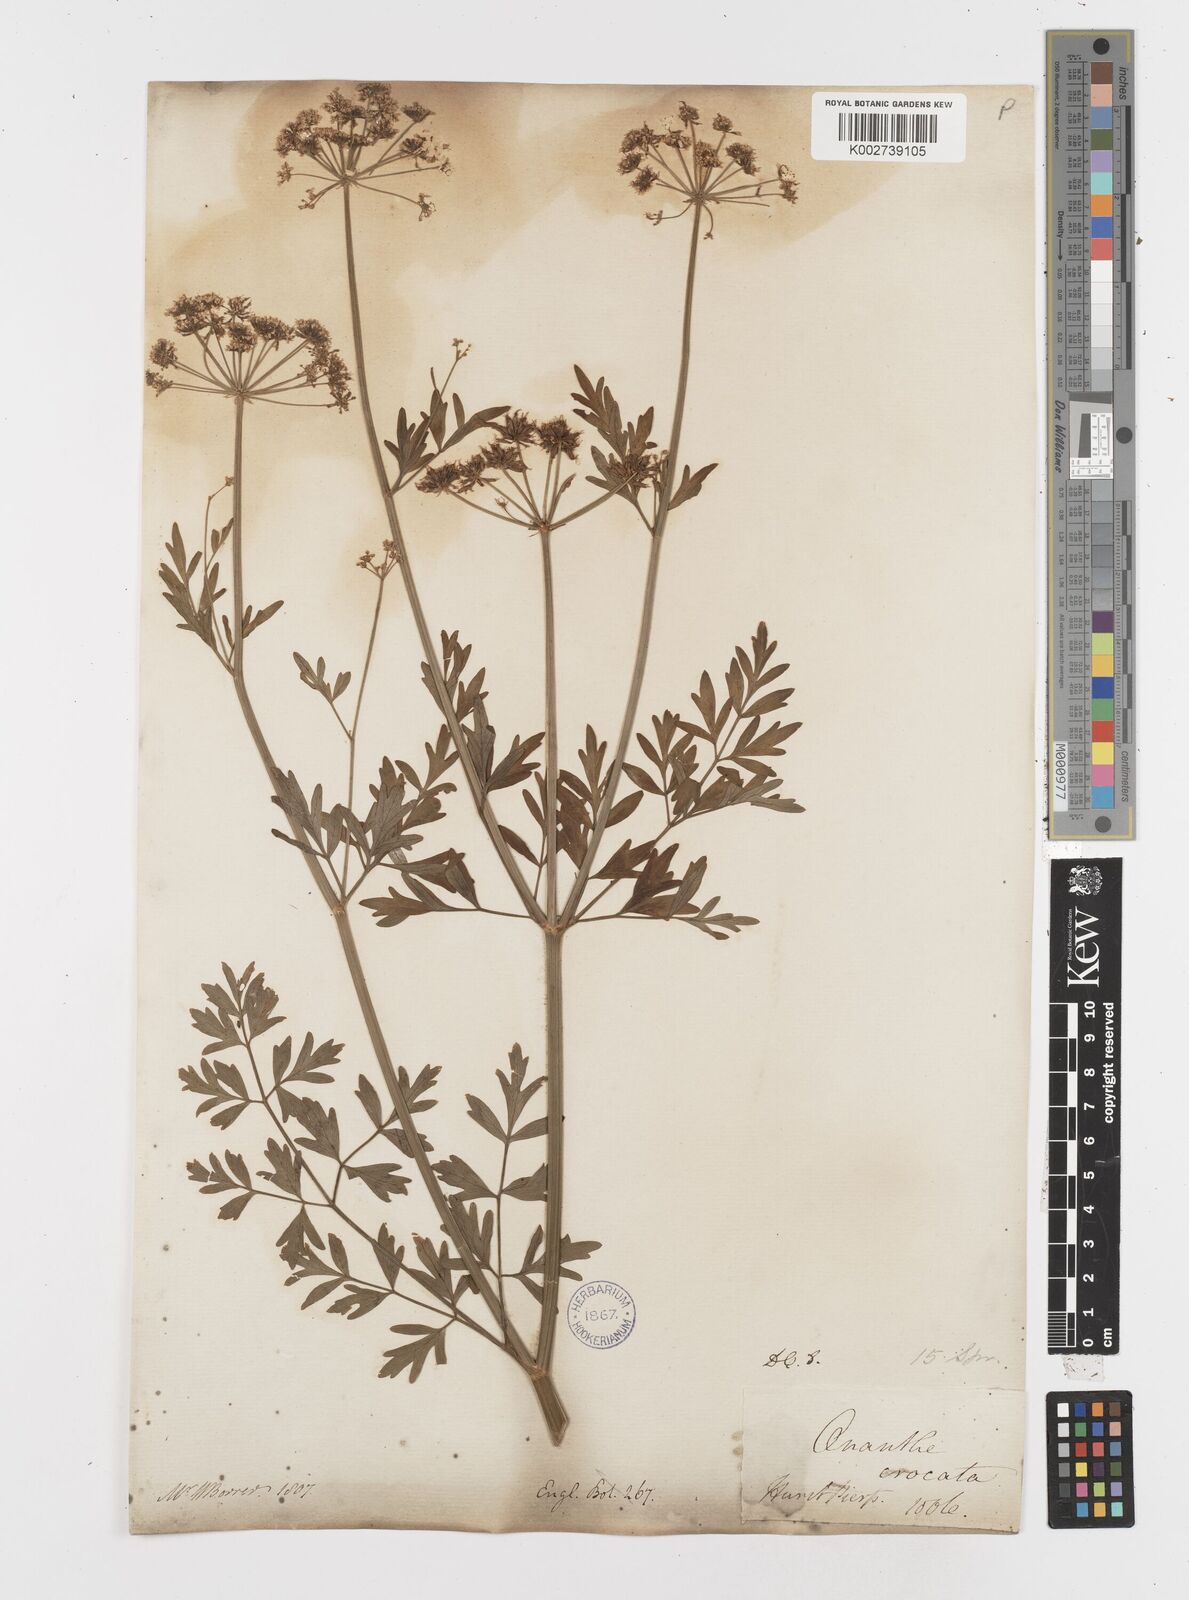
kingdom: Plantae
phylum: Tracheophyta
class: Magnoliopsida
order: Apiales
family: Apiaceae
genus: Oenanthe
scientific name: Oenanthe crocata
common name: Hemlock water-dropwort
